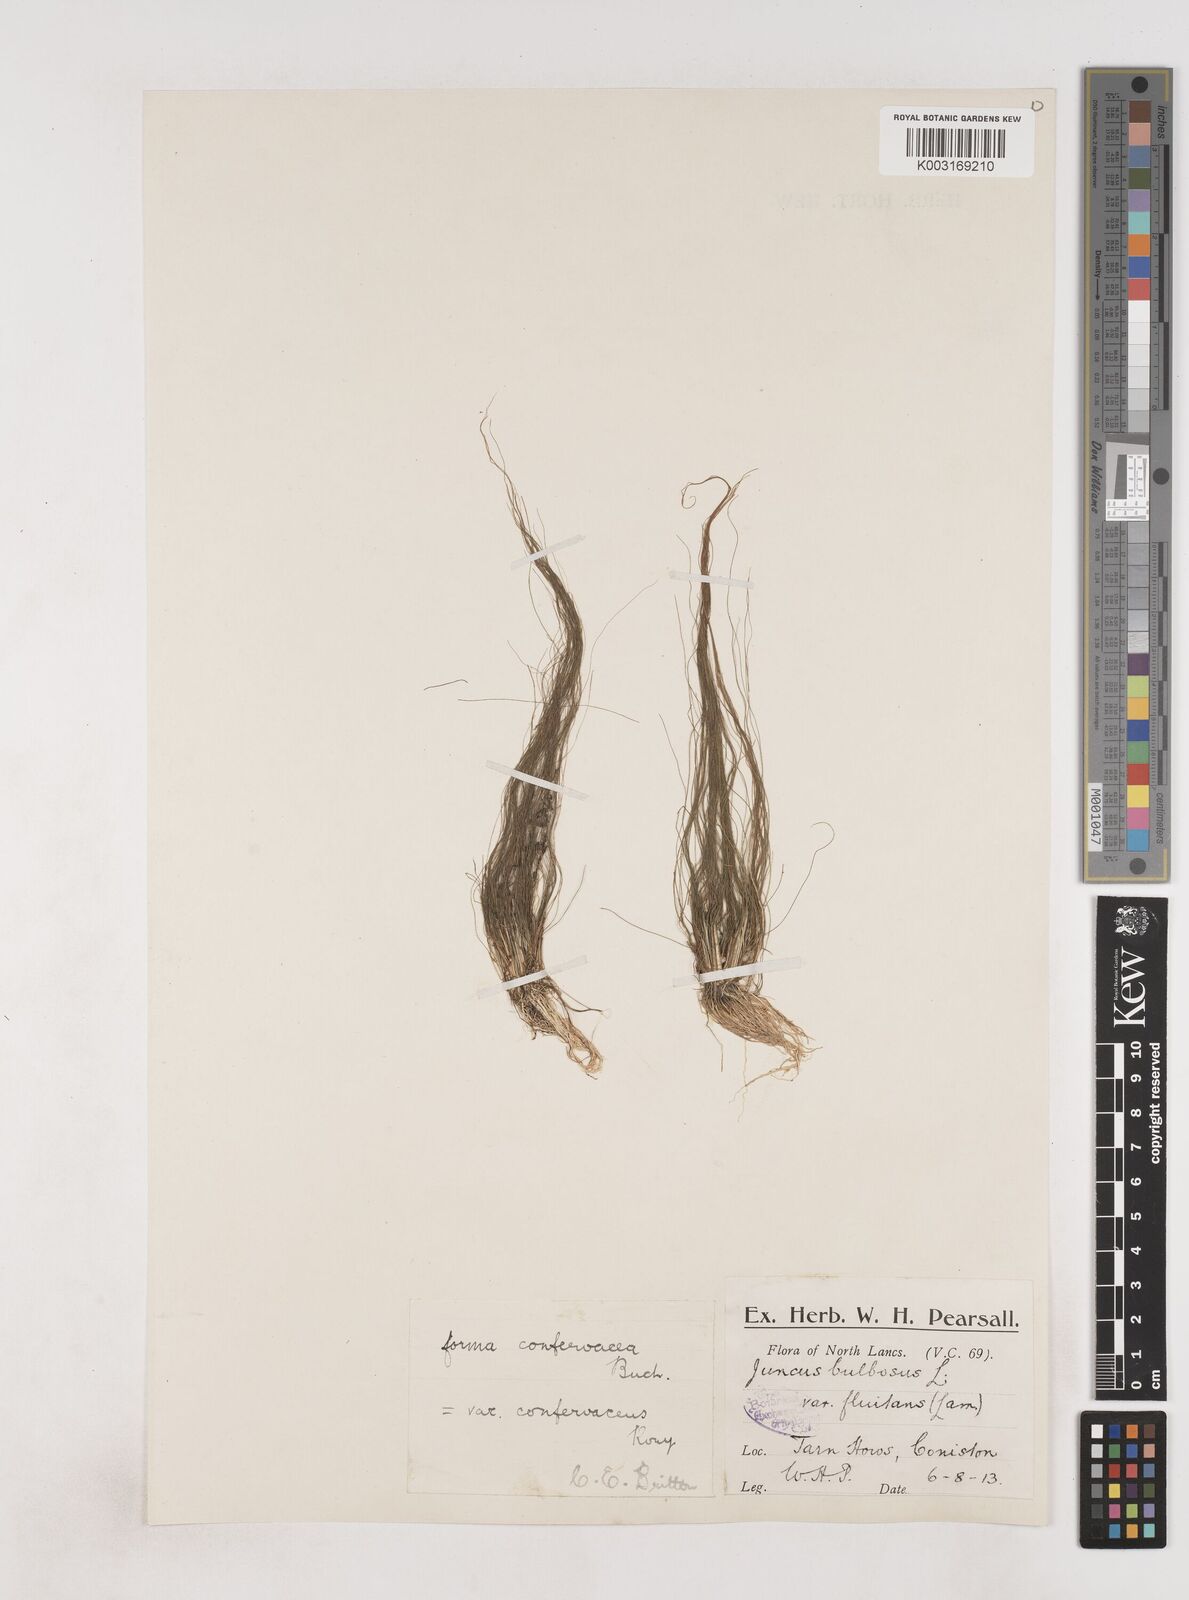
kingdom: Plantae
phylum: Tracheophyta
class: Liliopsida
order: Poales
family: Juncaceae
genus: Juncus
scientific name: Juncus bulbosus
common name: Bulbous rush
